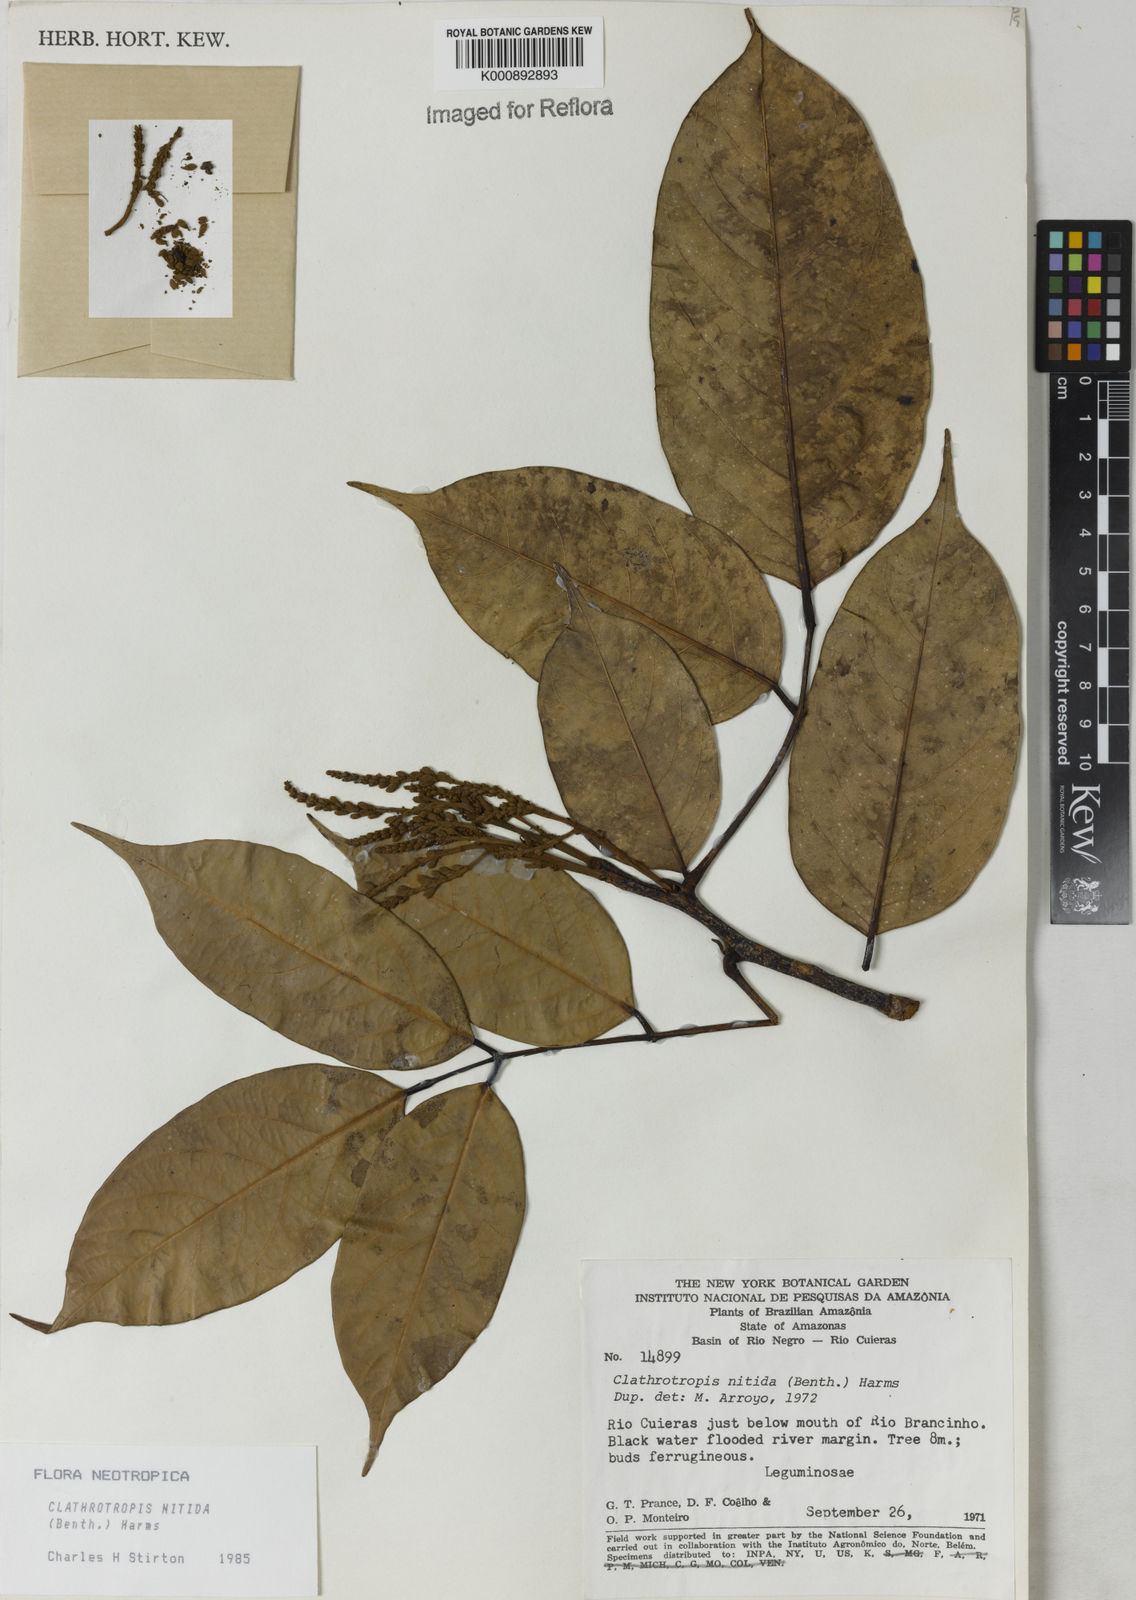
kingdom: Plantae
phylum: Tracheophyta
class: Magnoliopsida
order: Fabales
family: Fabaceae
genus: Clathrotropis
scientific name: Clathrotropis nitida
